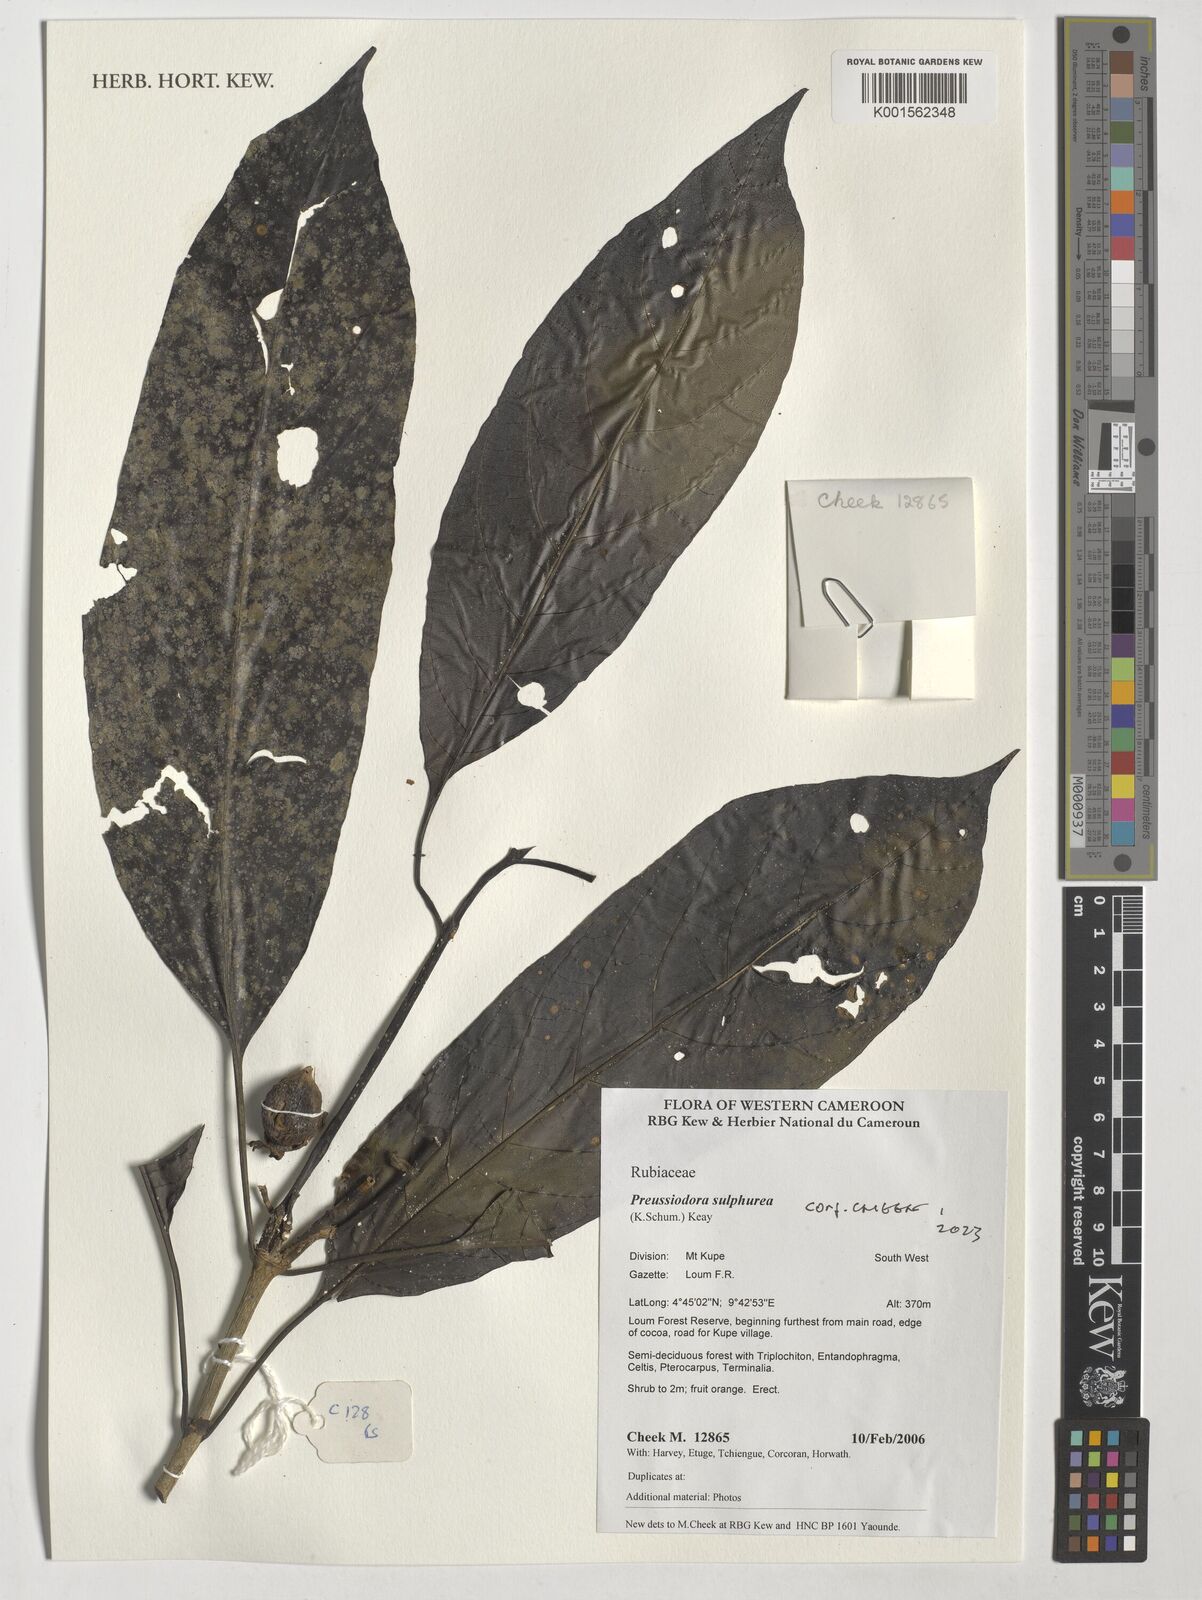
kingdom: Plantae
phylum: Tracheophyta
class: Magnoliopsida
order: Gentianales
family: Rubiaceae
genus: Preussiodora
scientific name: Preussiodora sulphurea
